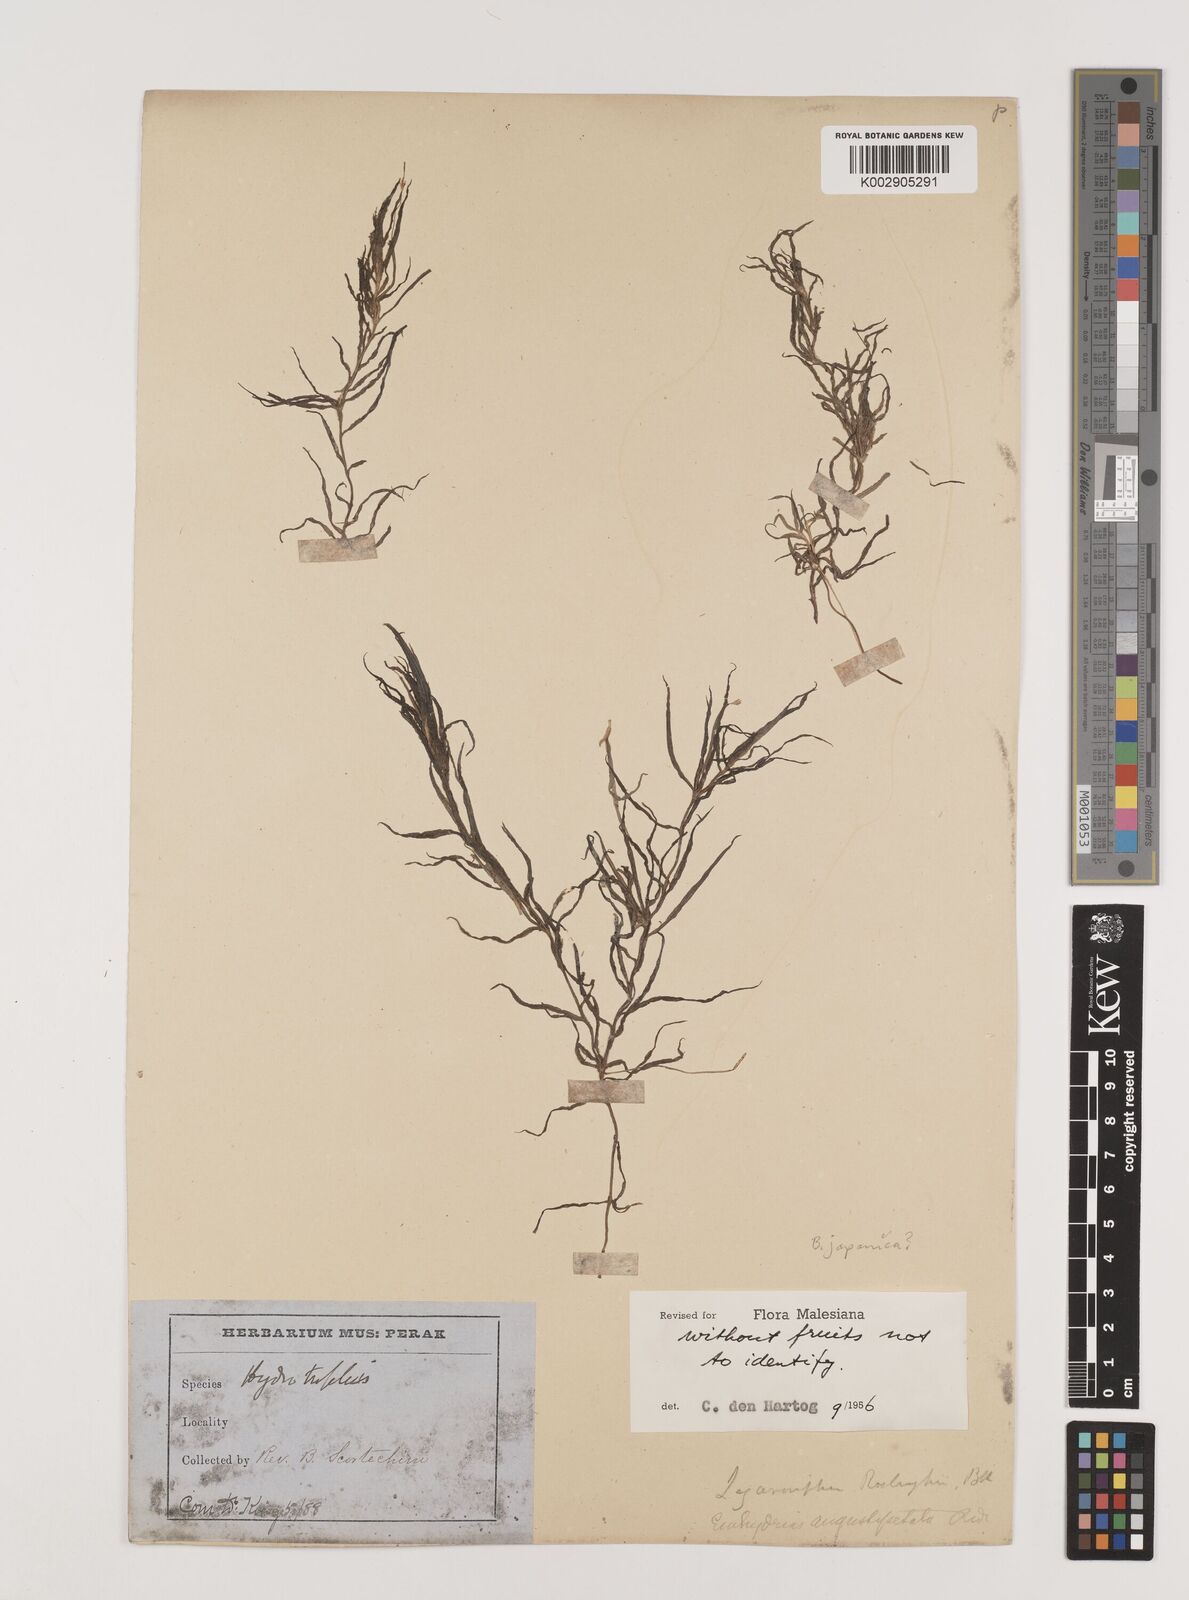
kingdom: Plantae
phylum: Tracheophyta
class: Liliopsida
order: Alismatales
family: Hydrocharitaceae
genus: Blyxa
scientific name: Blyxa japonica
